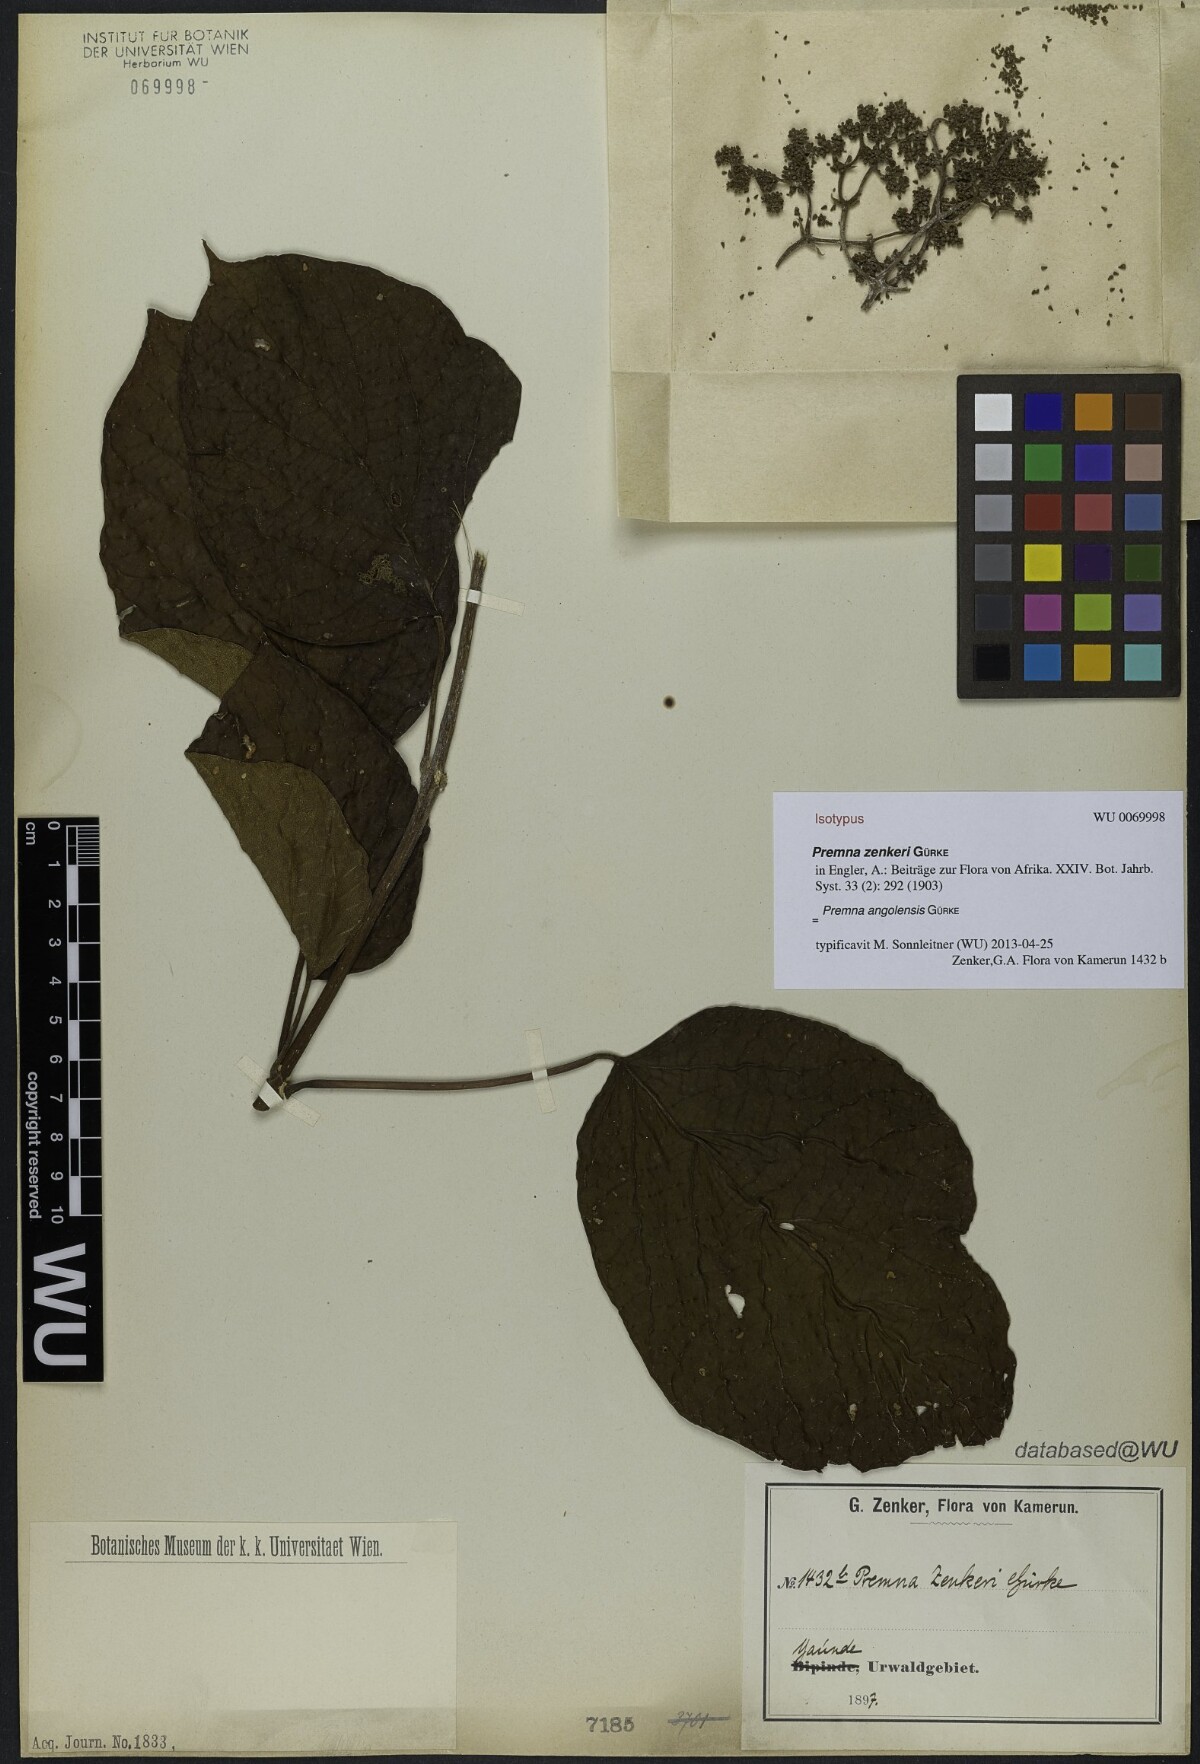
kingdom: Plantae
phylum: Tracheophyta
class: Magnoliopsida
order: Lamiales
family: Lamiaceae
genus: Premna
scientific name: Premna angolensis
